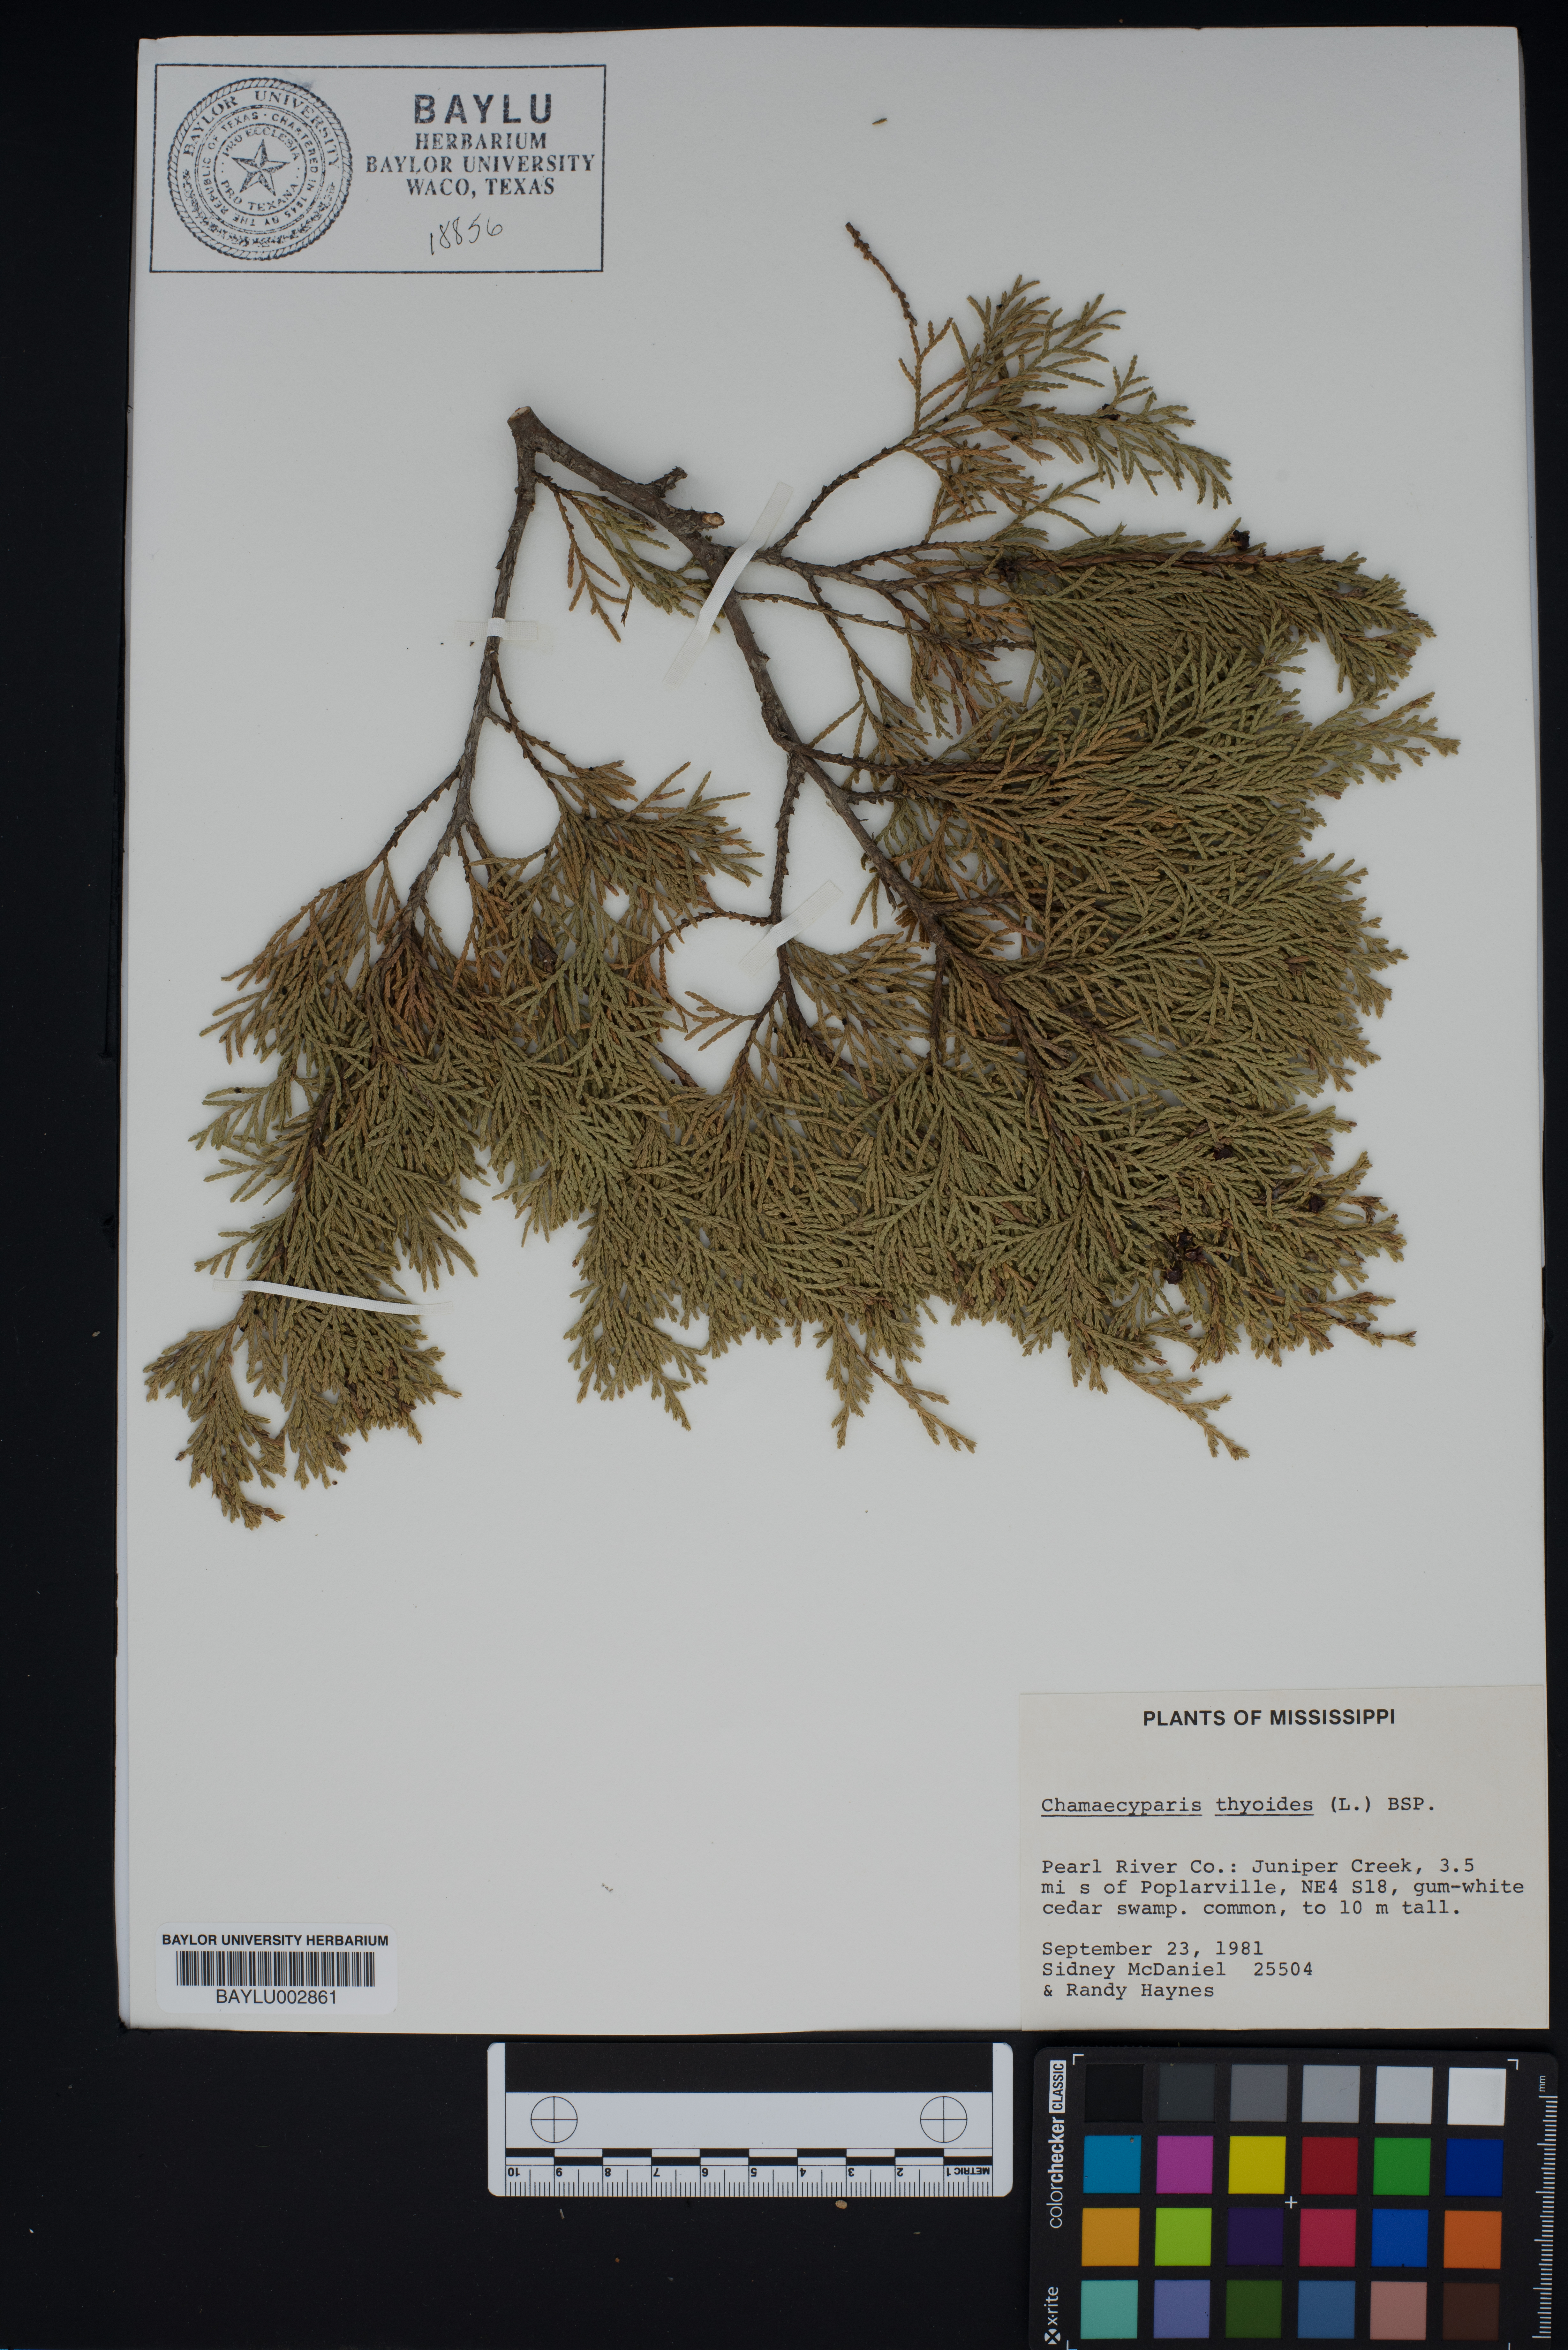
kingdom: Plantae
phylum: Tracheophyta
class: Pinopsida
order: Pinales
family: Cupressaceae
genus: Chamaecyparis
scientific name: Chamaecyparis thyoides
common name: Atlantic white cedar
